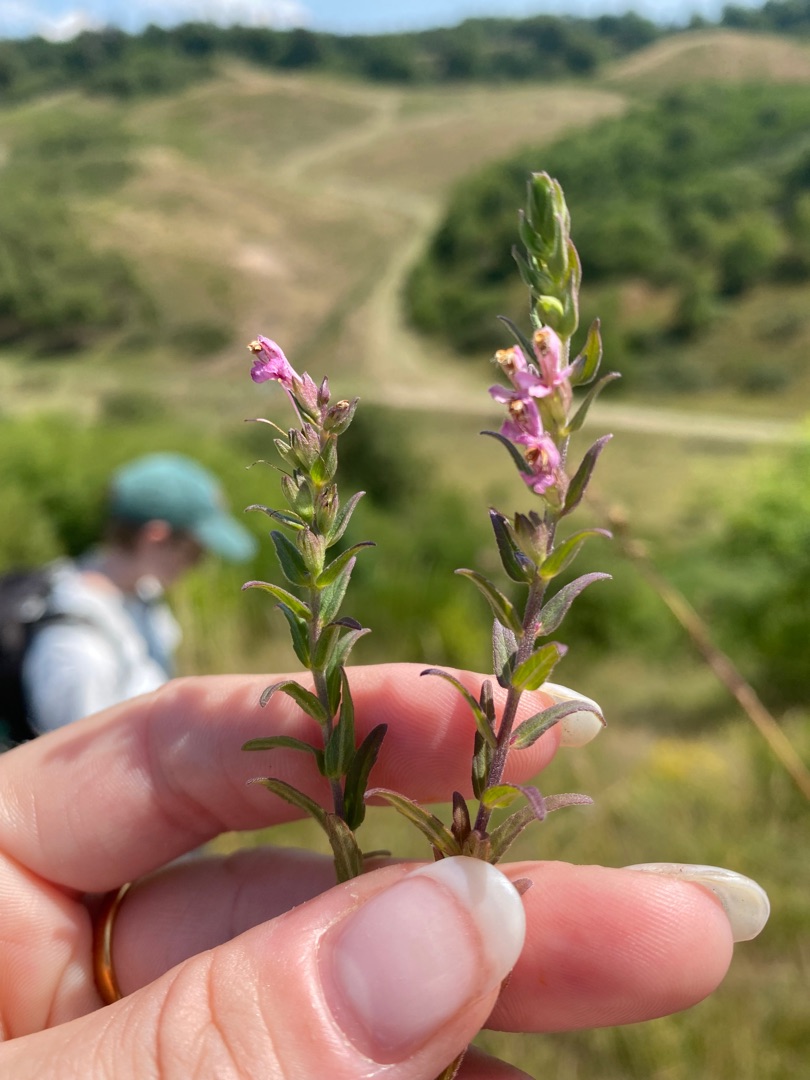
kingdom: Plantae
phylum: Tracheophyta
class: Magnoliopsida
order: Lamiales
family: Orobanchaceae
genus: Odontites
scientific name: Odontites vernus
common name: Mark-rødtop
